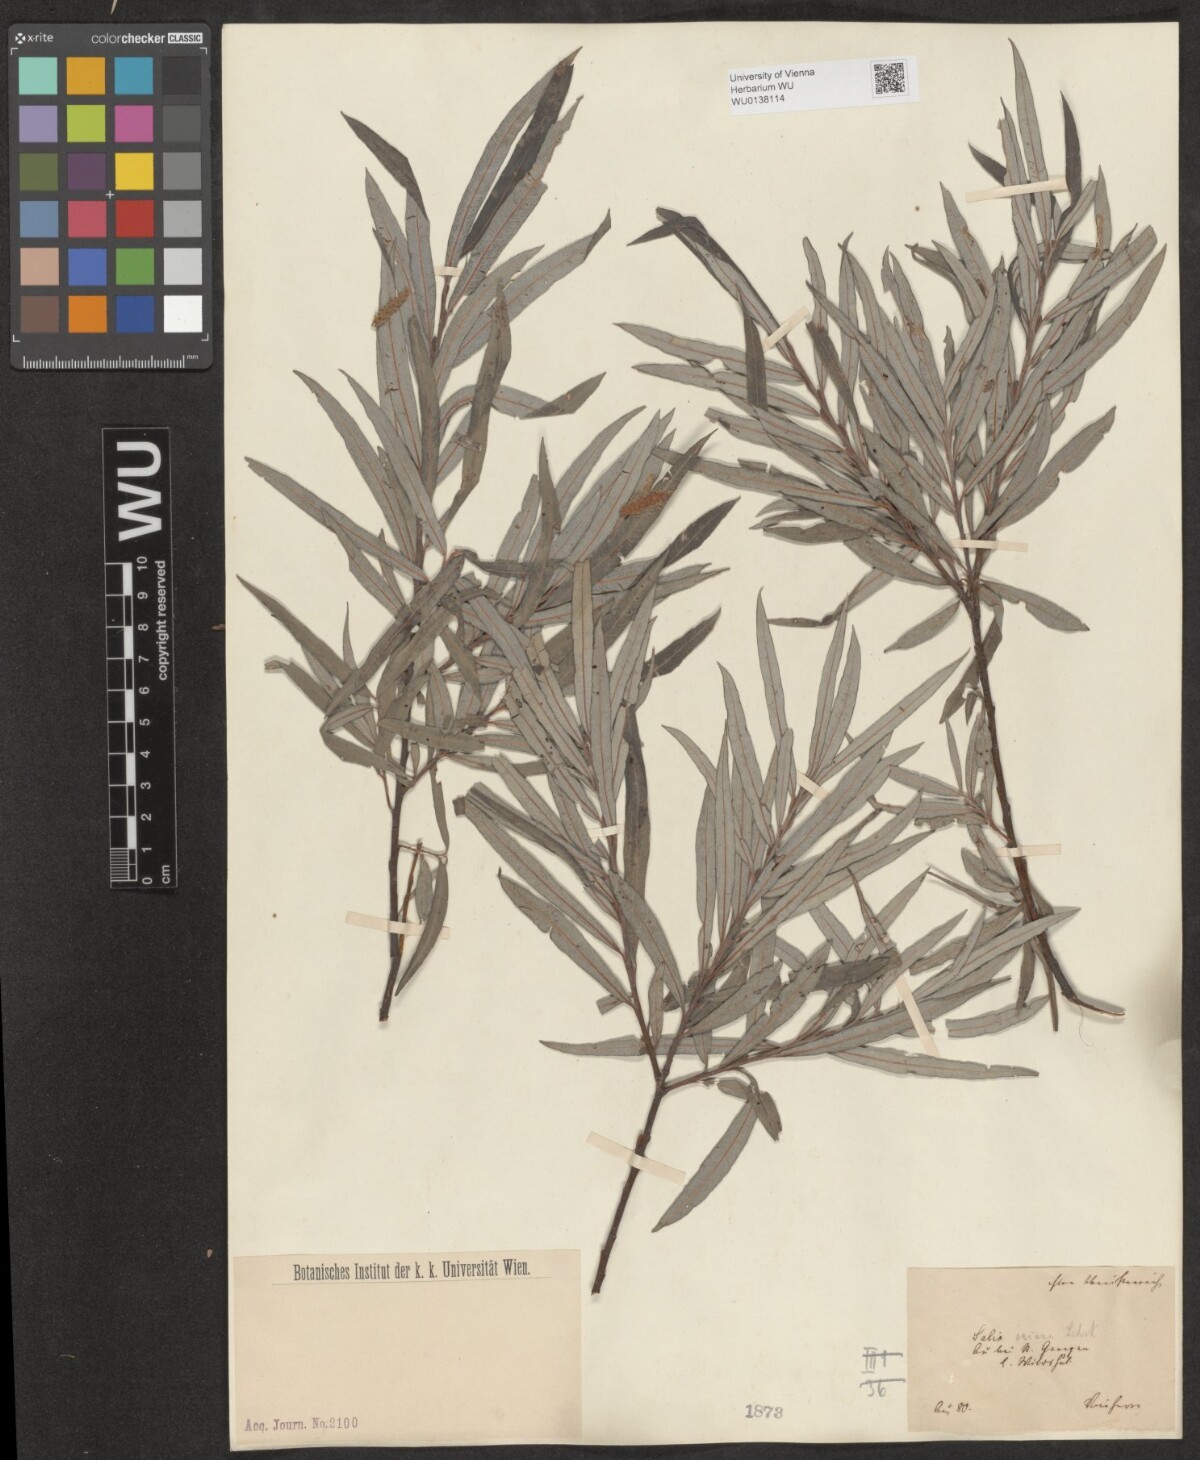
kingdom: Plantae
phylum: Tracheophyta
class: Magnoliopsida
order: Malpighiales
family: Salicaceae
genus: Salix
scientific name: Salix eleagnos
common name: Elaeagnus willow
